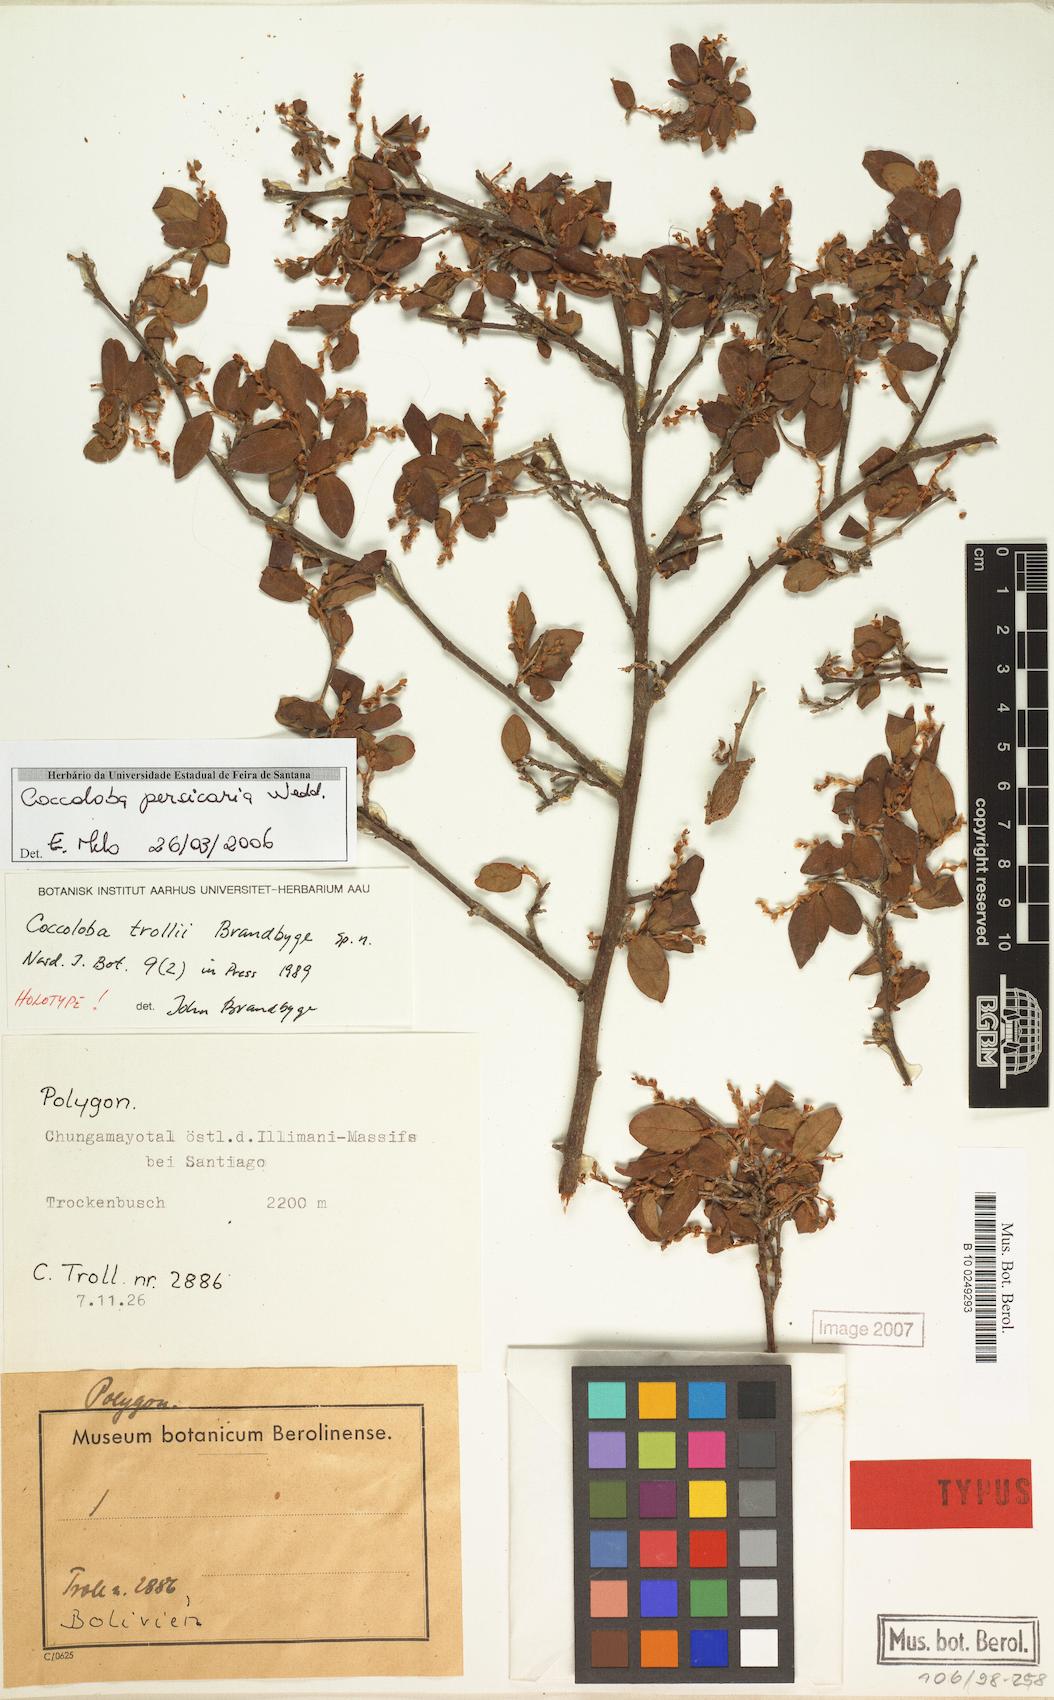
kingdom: Plantae
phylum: Tracheophyta
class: Magnoliopsida
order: Caryophyllales
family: Polygonaceae
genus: Coccoloba
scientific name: Coccoloba persicaria
